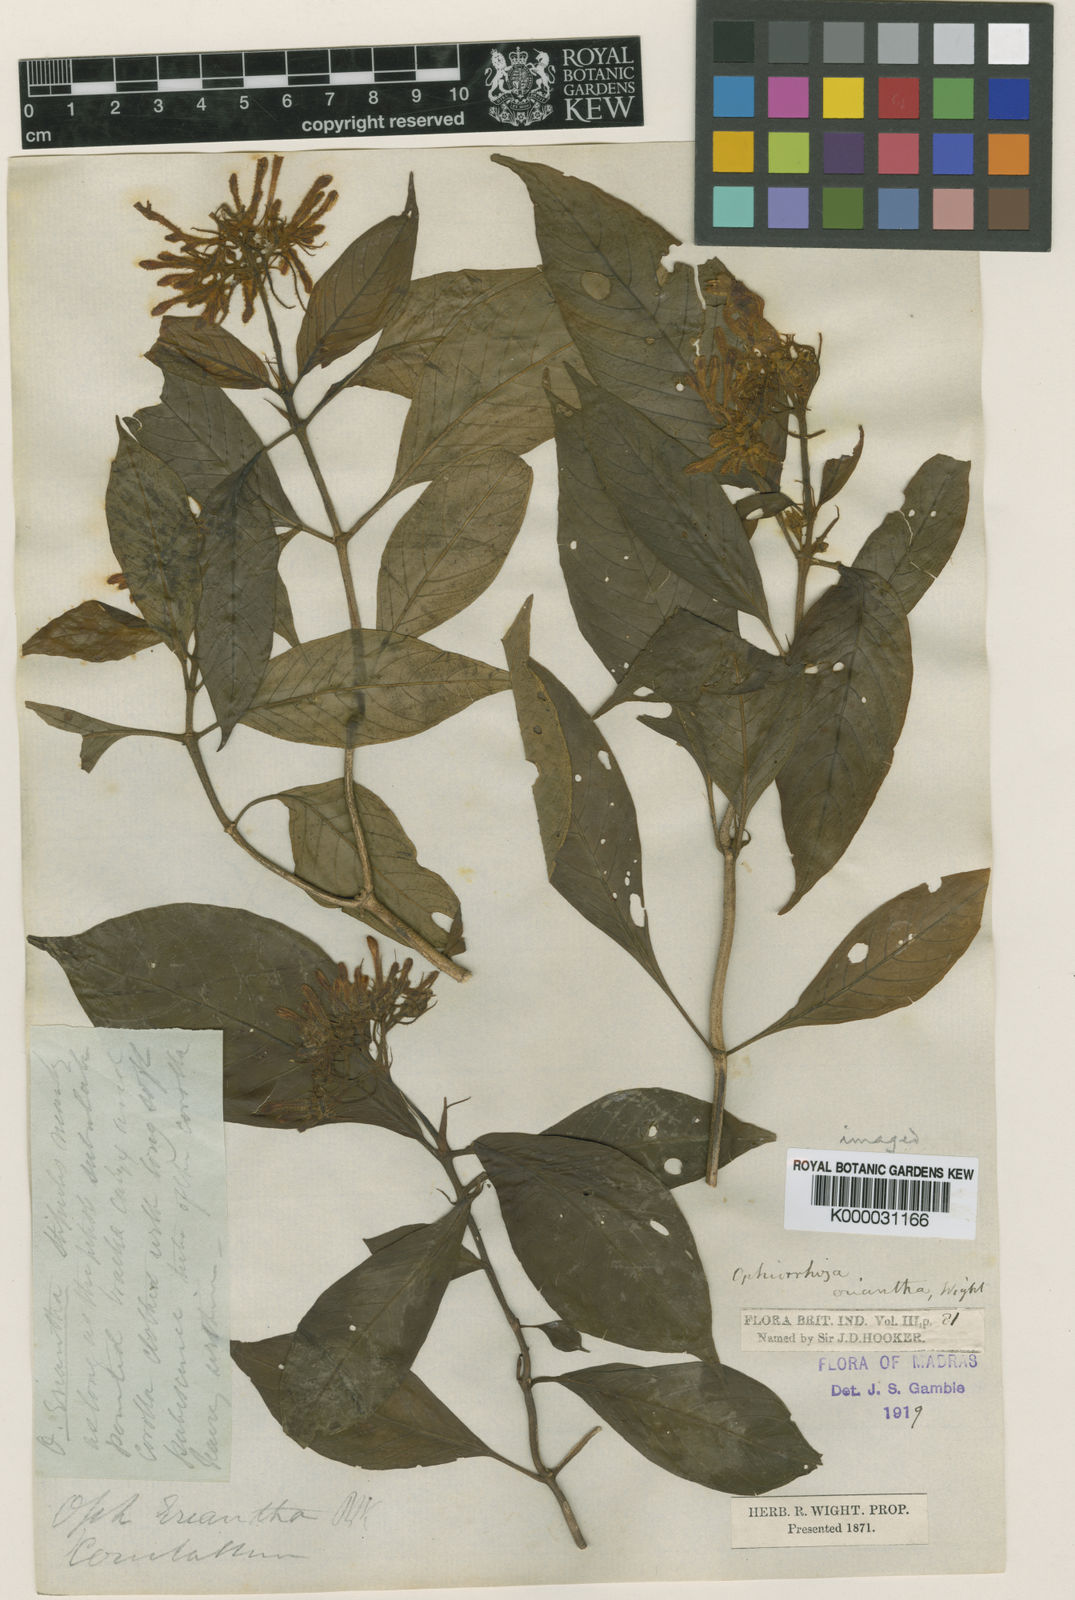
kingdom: Plantae
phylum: Tracheophyta
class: Magnoliopsida
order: Gentianales
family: Rubiaceae
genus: Ophiorrhiza
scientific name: Ophiorrhiza eriantha
